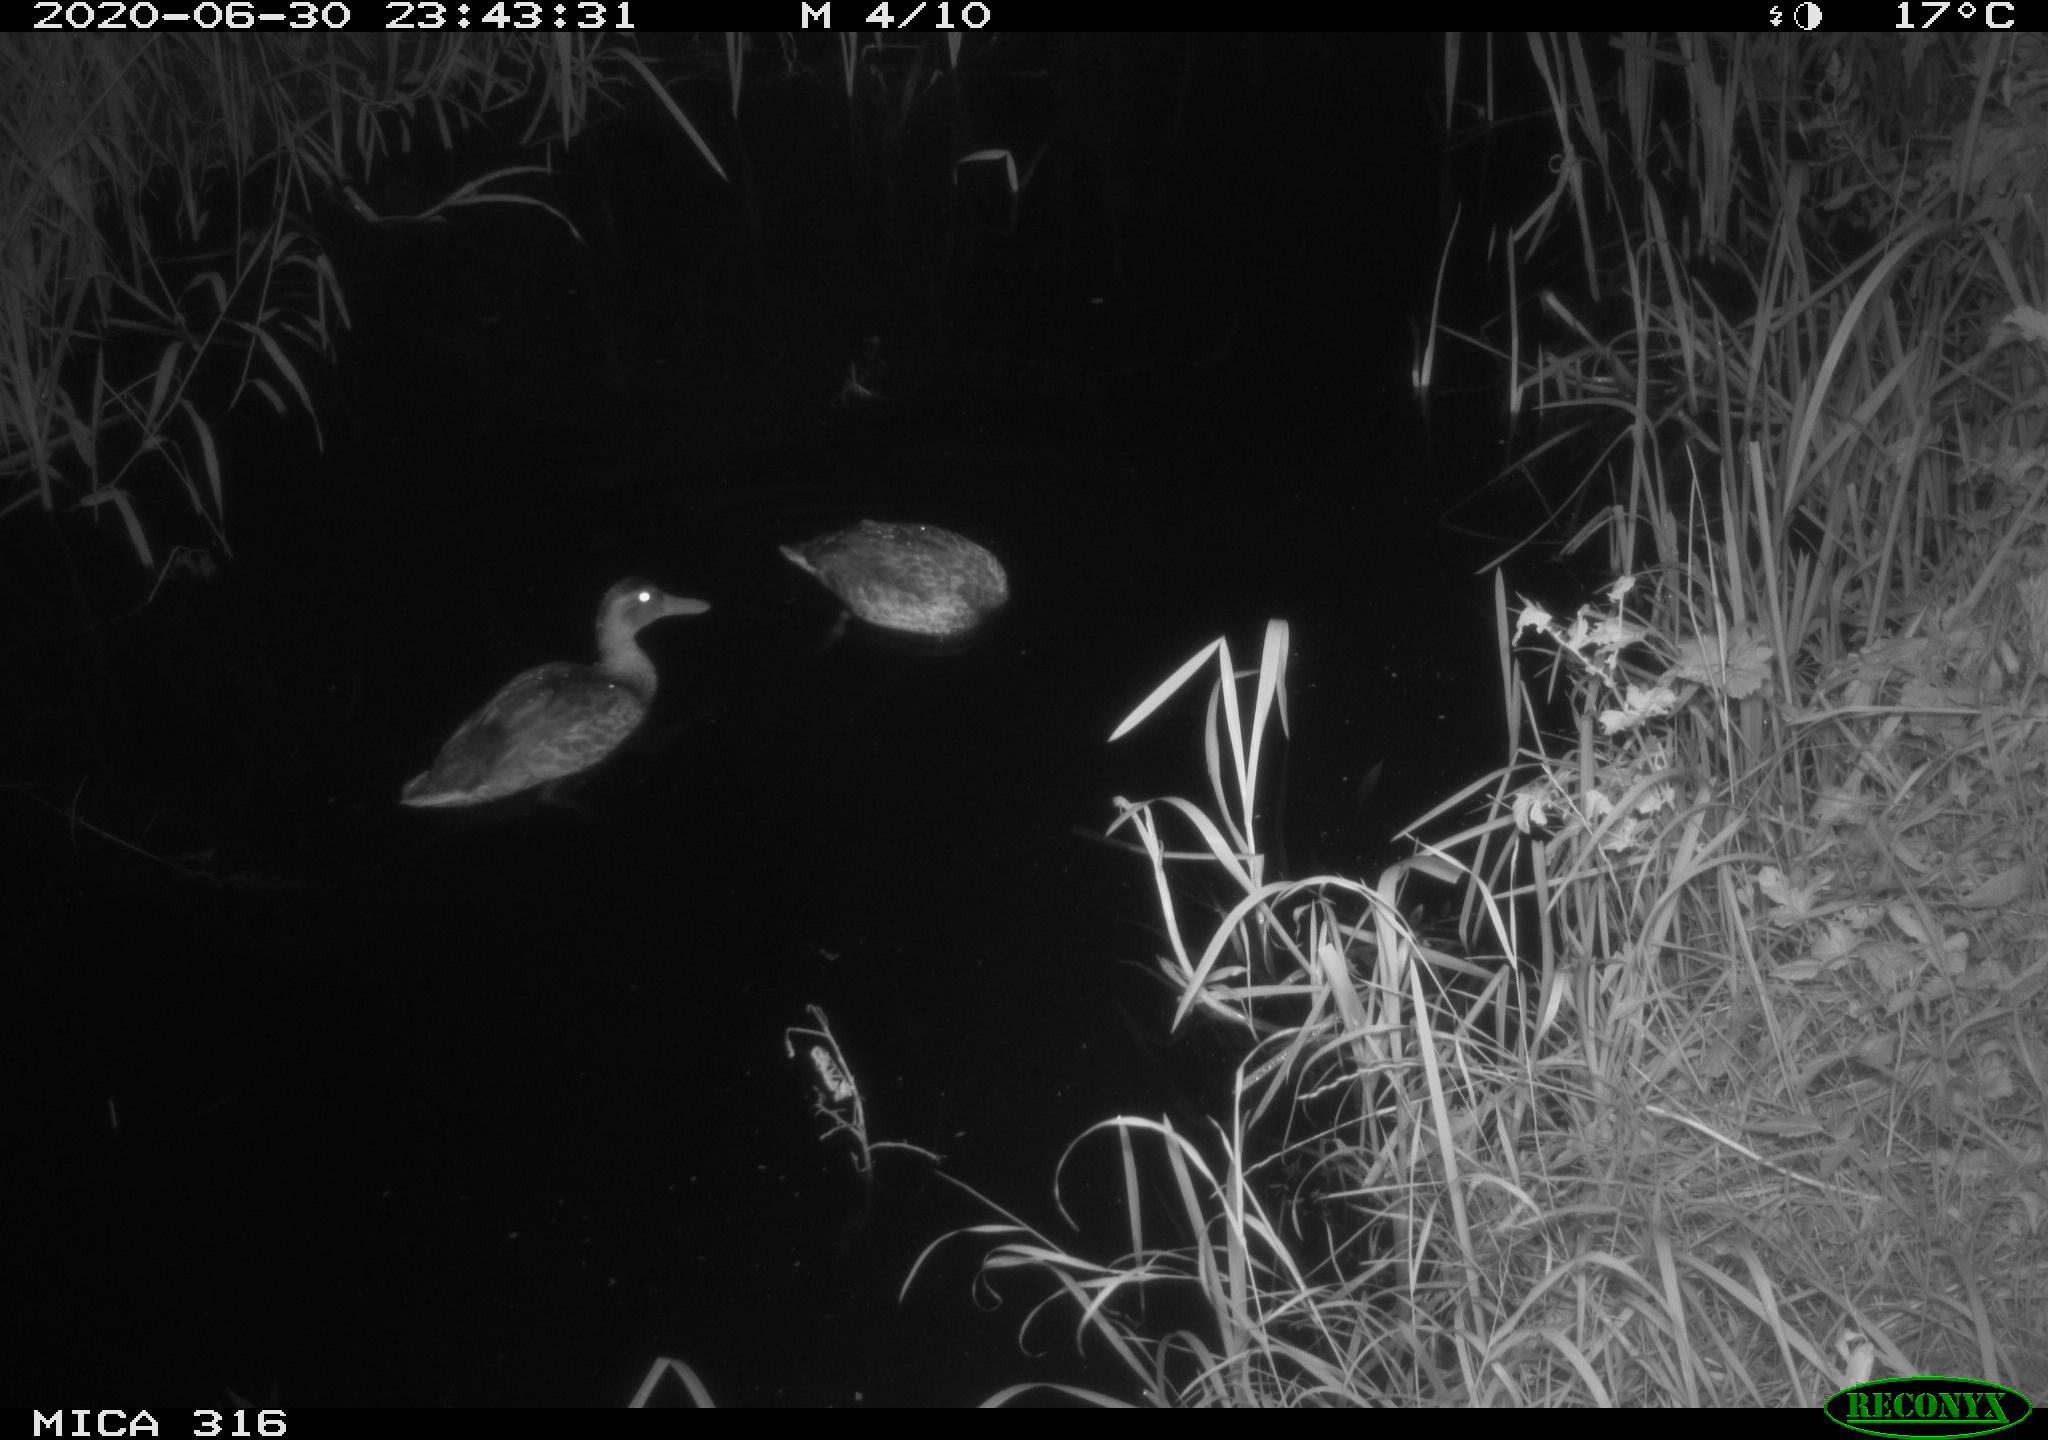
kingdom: Animalia
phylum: Chordata
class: Aves
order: Anseriformes
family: Anatidae
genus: Anas
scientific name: Anas platyrhynchos
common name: Mallard
